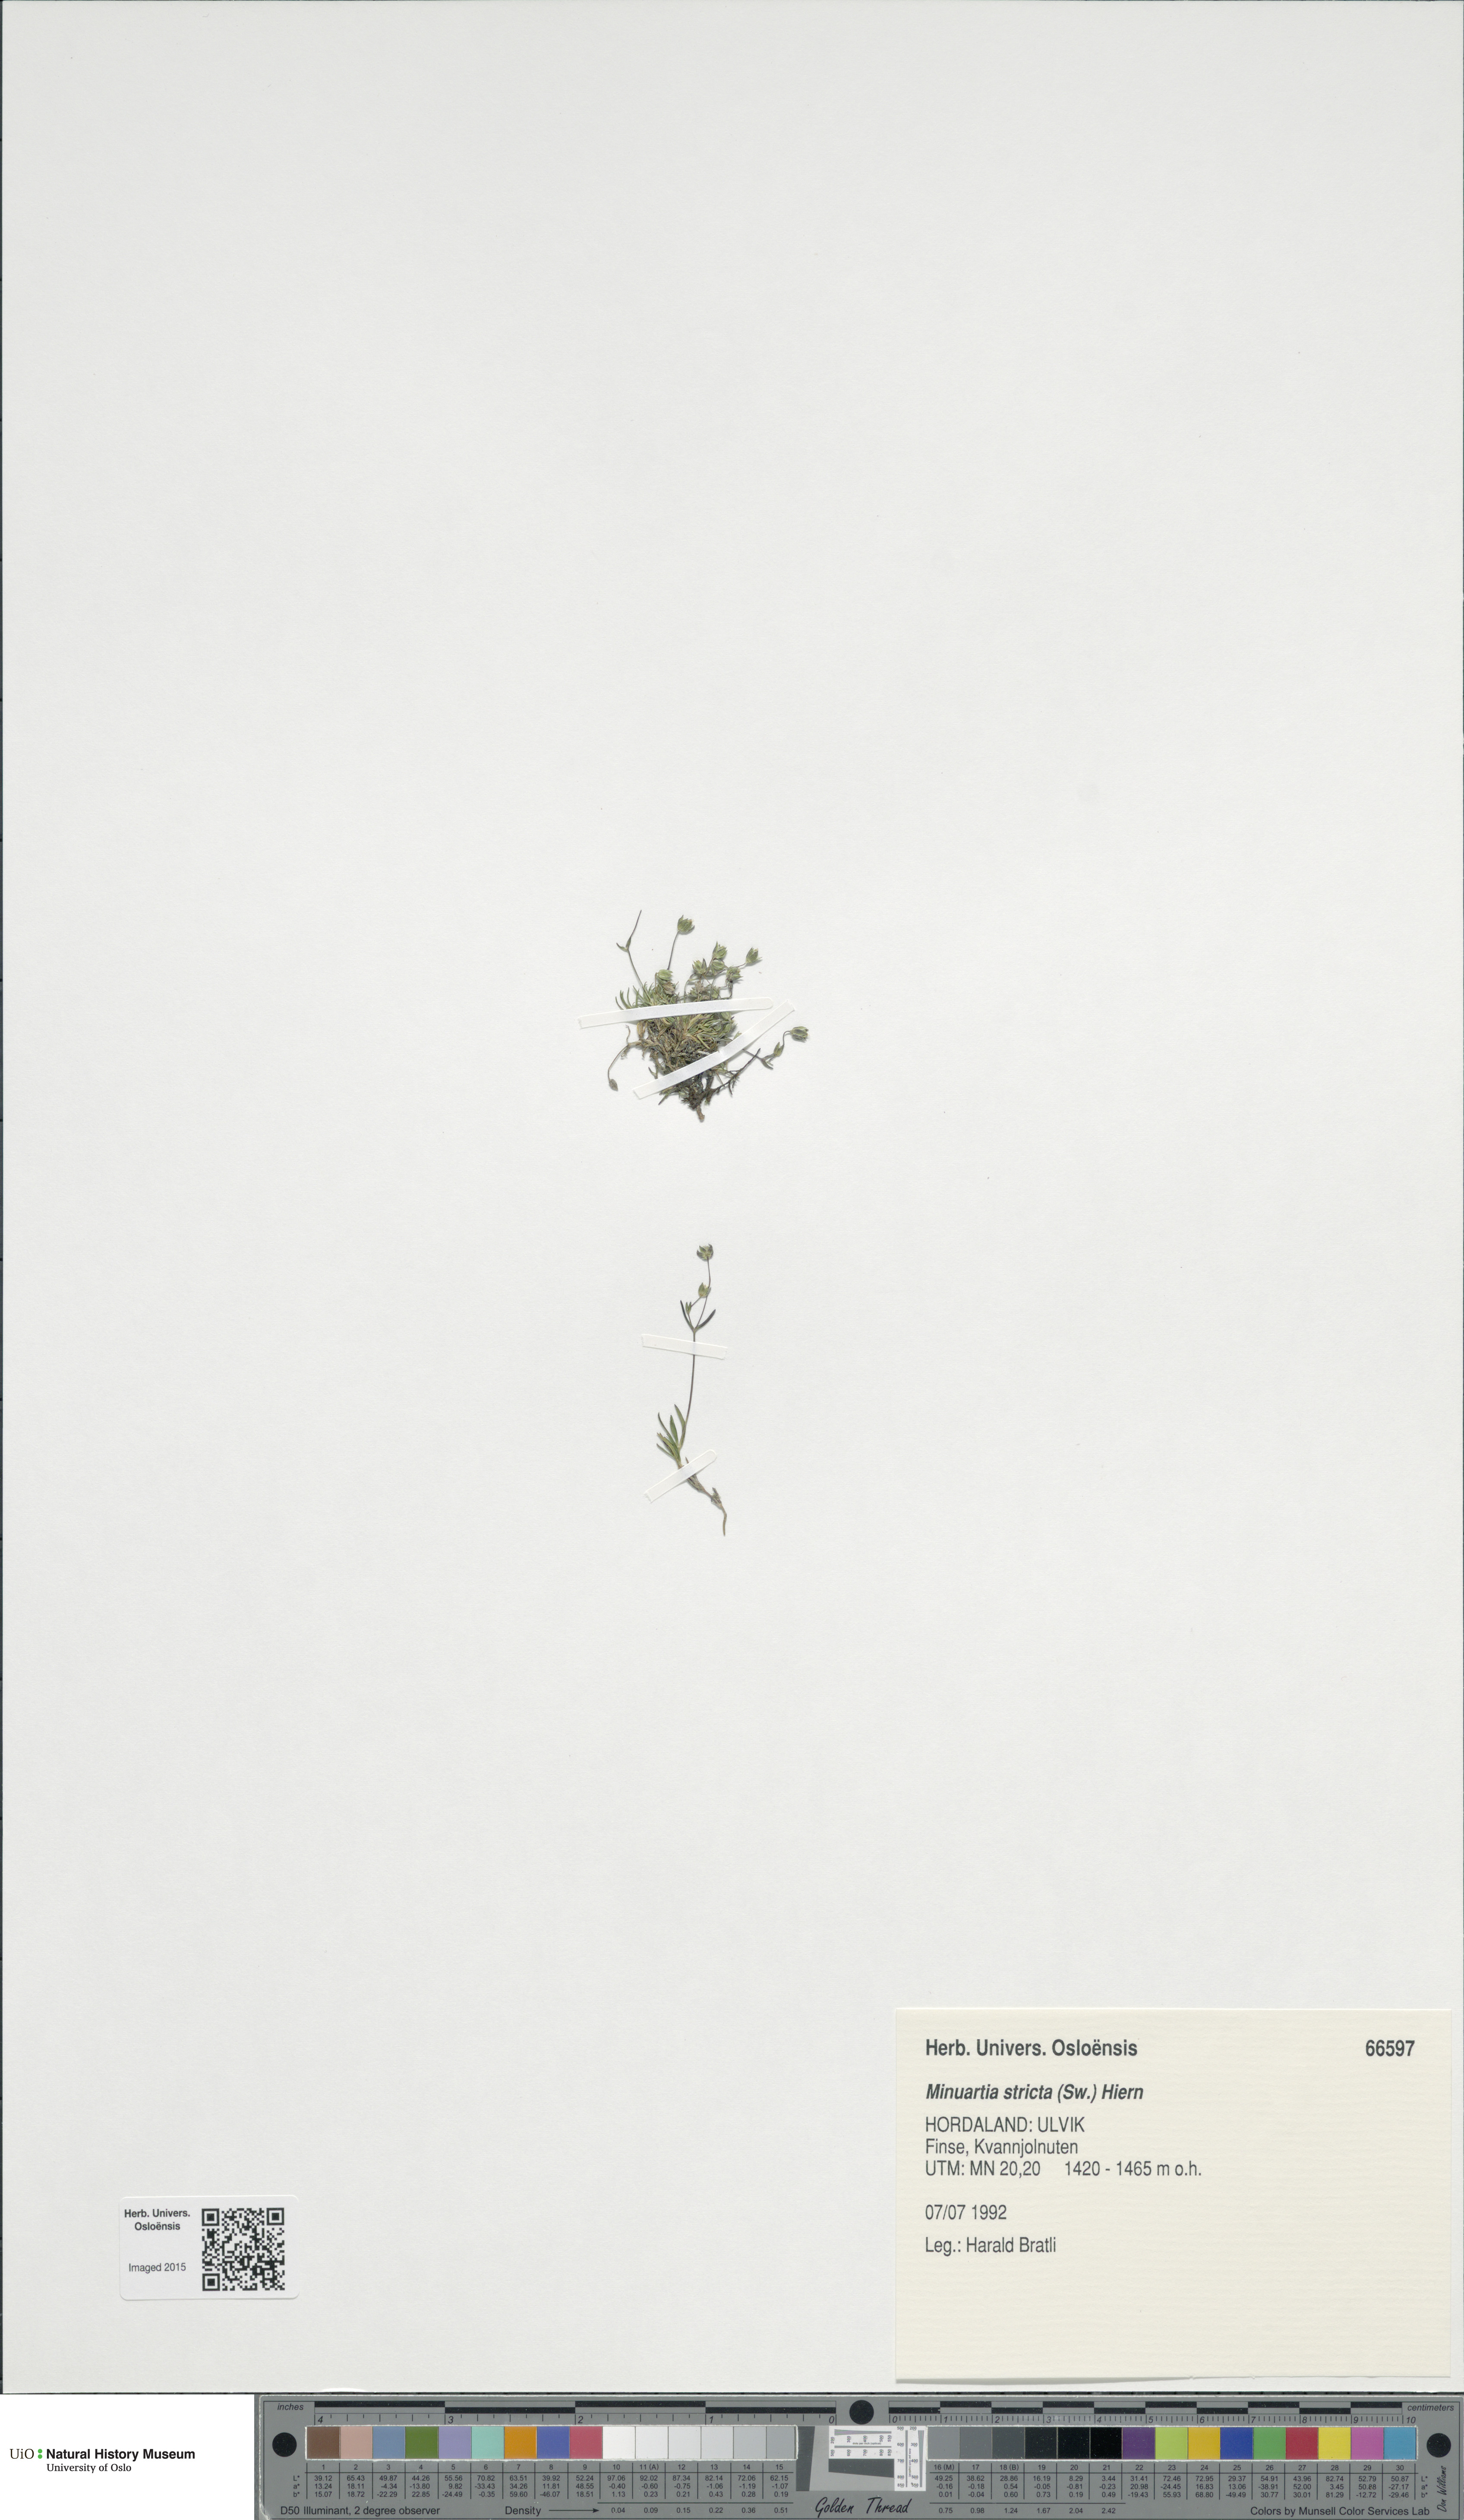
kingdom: Plantae
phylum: Tracheophyta
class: Magnoliopsida
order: Caryophyllales
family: Caryophyllaceae
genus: Sabulina
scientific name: Sabulina stricta
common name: Bog sandwort
